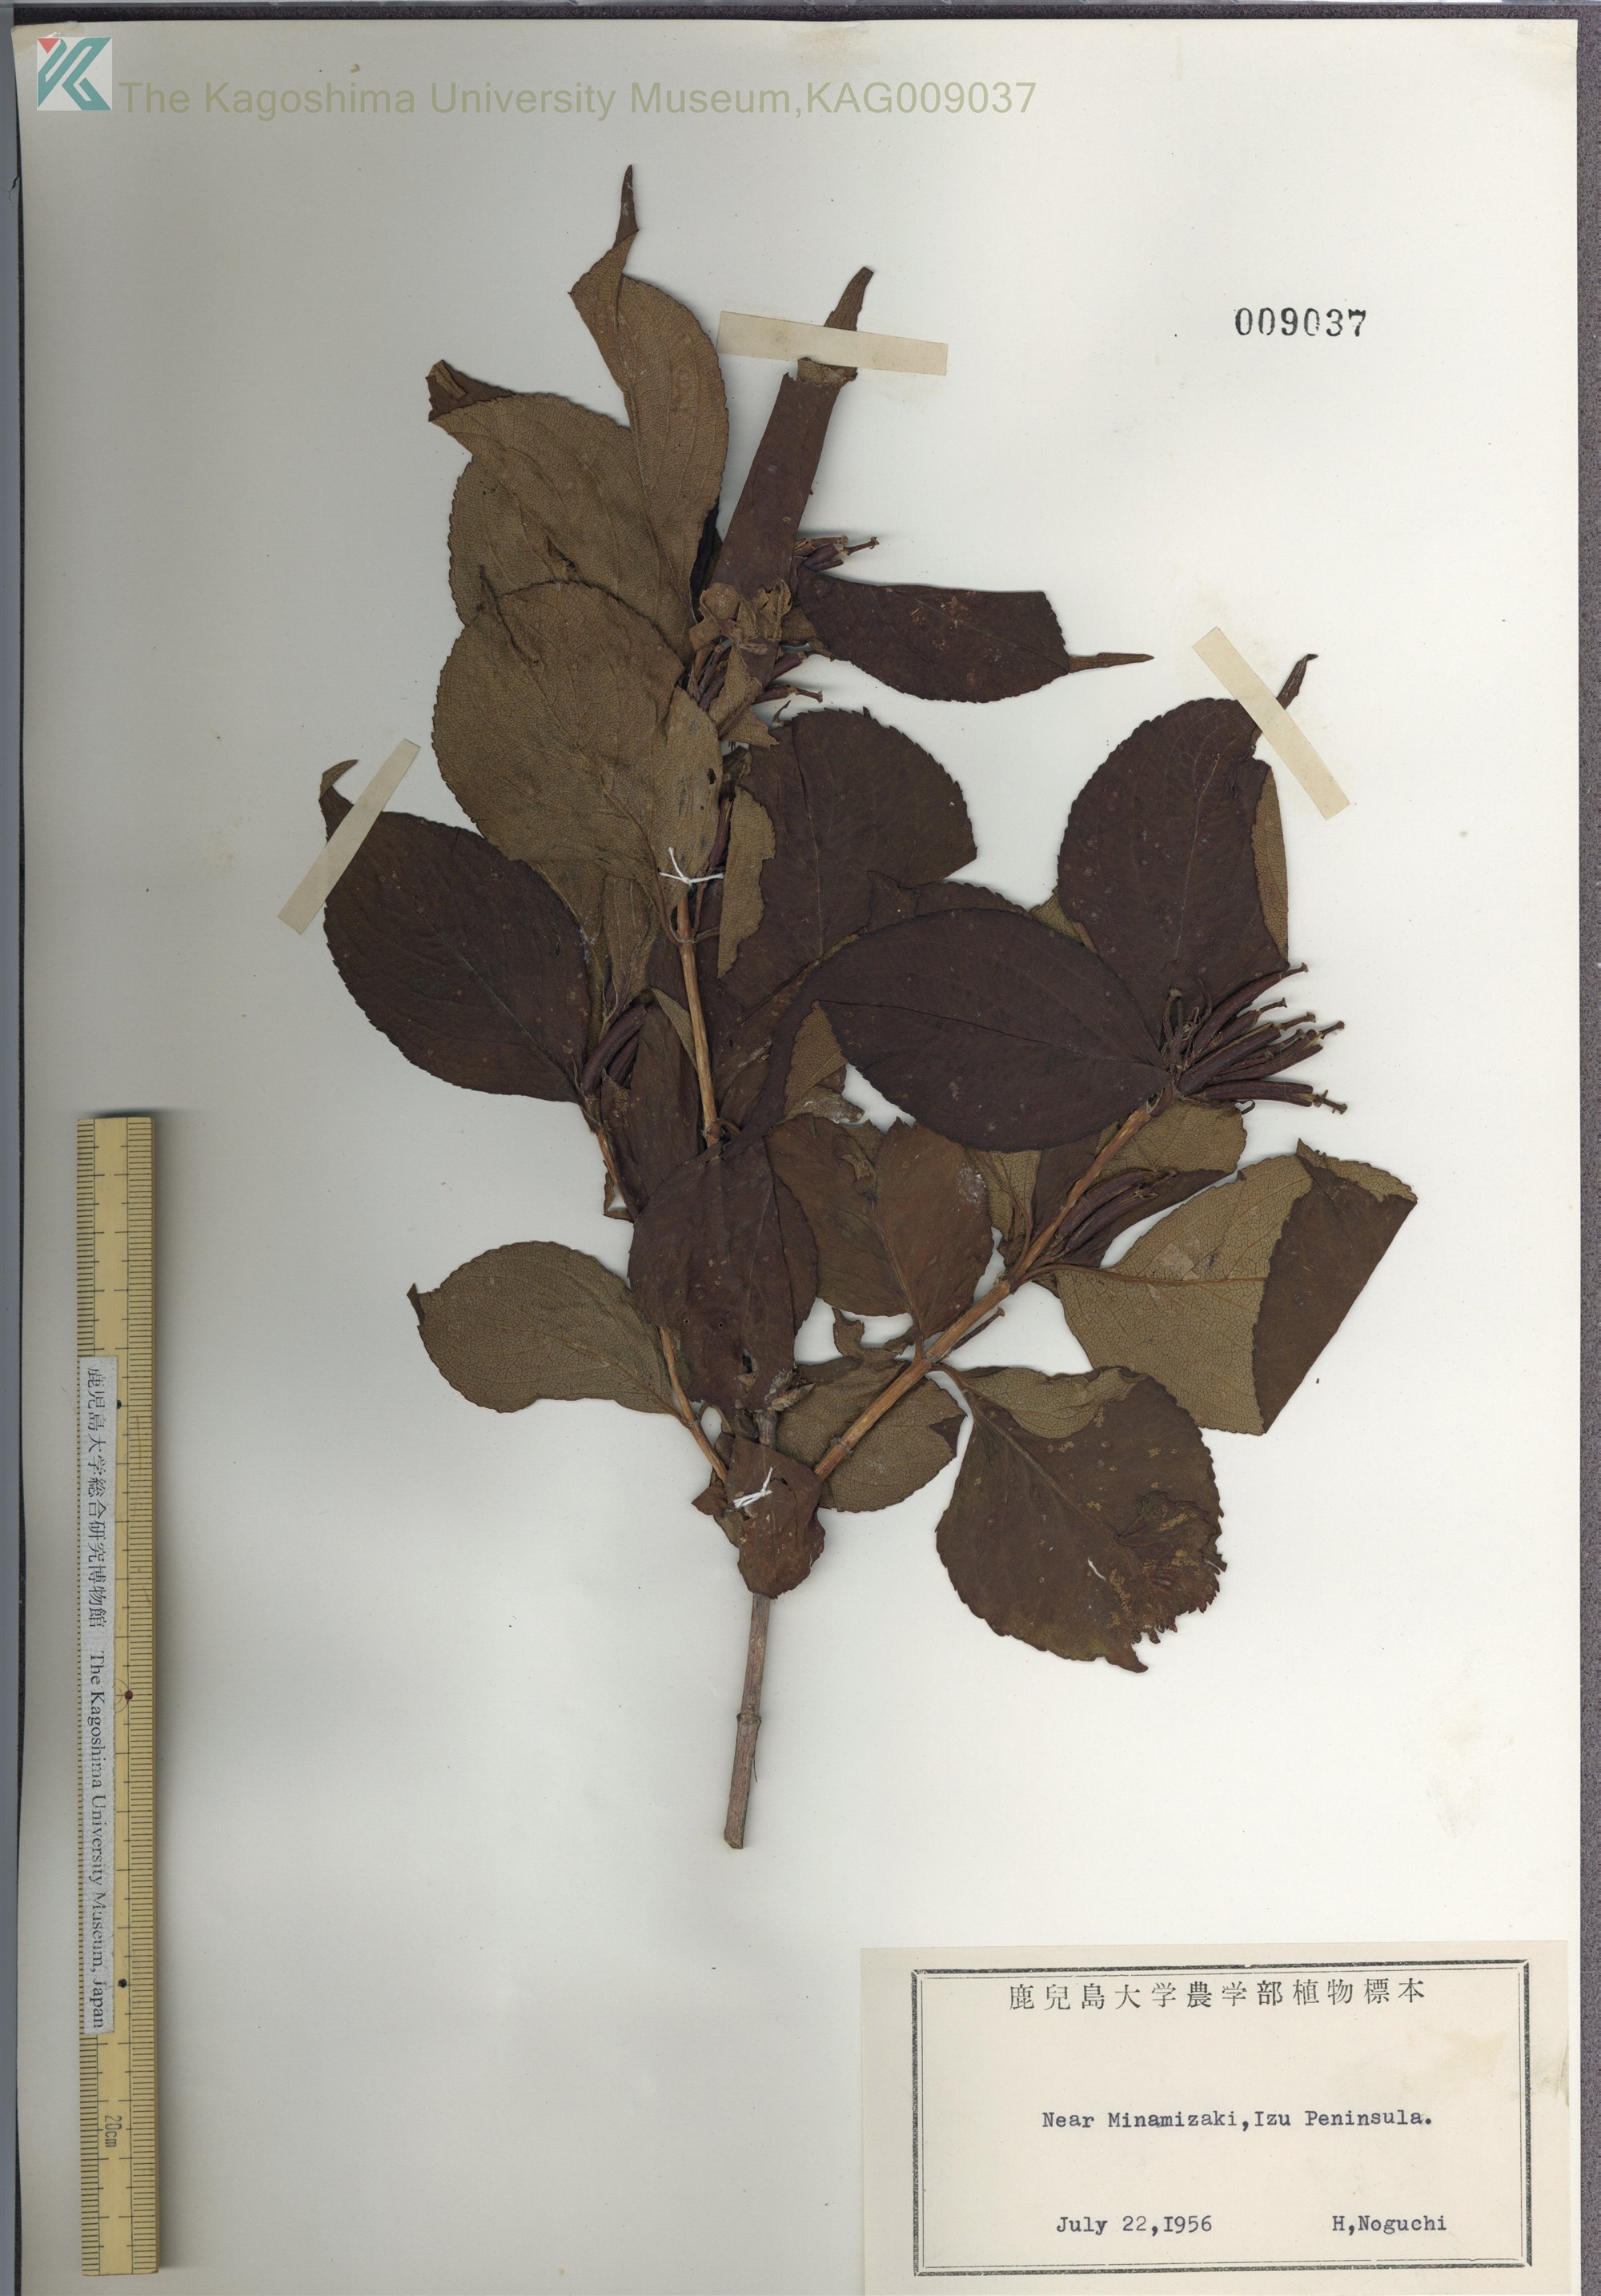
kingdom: Plantae
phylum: Tracheophyta
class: Magnoliopsida
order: Dipsacales
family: Caprifoliaceae
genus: Weigela
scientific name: Weigela decora
